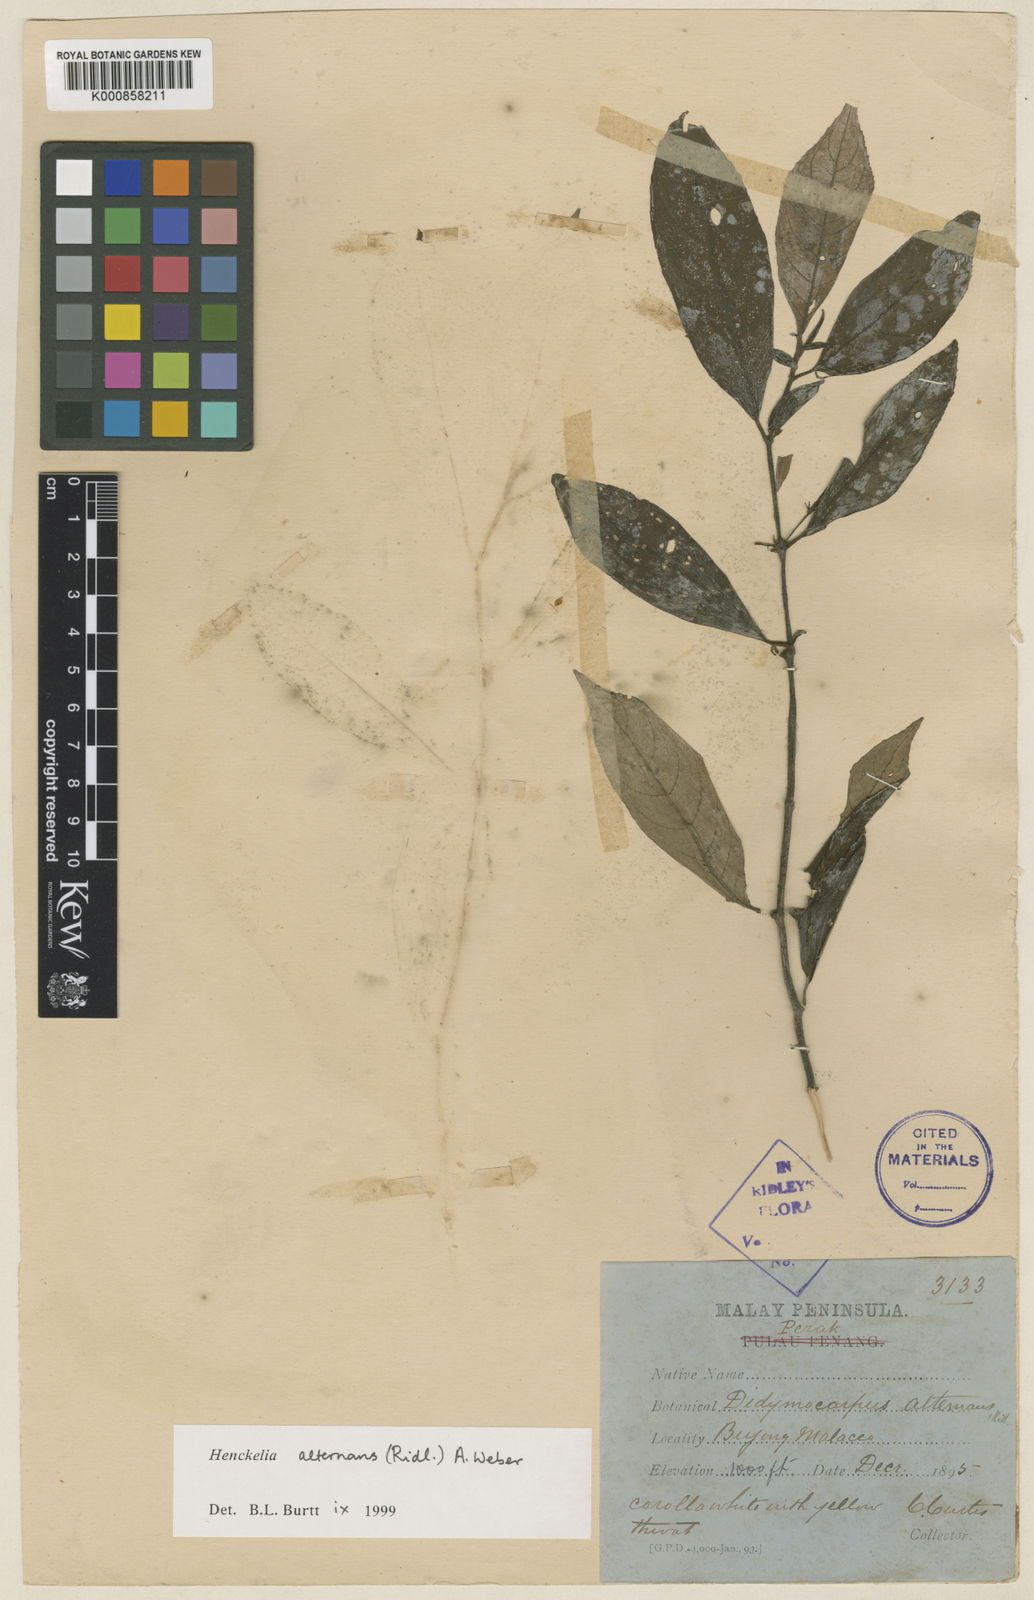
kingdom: Plantae
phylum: Tracheophyta
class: Magnoliopsida
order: Lamiales
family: Gesneriaceae
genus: Codonoboea
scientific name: Codonoboea alternans
